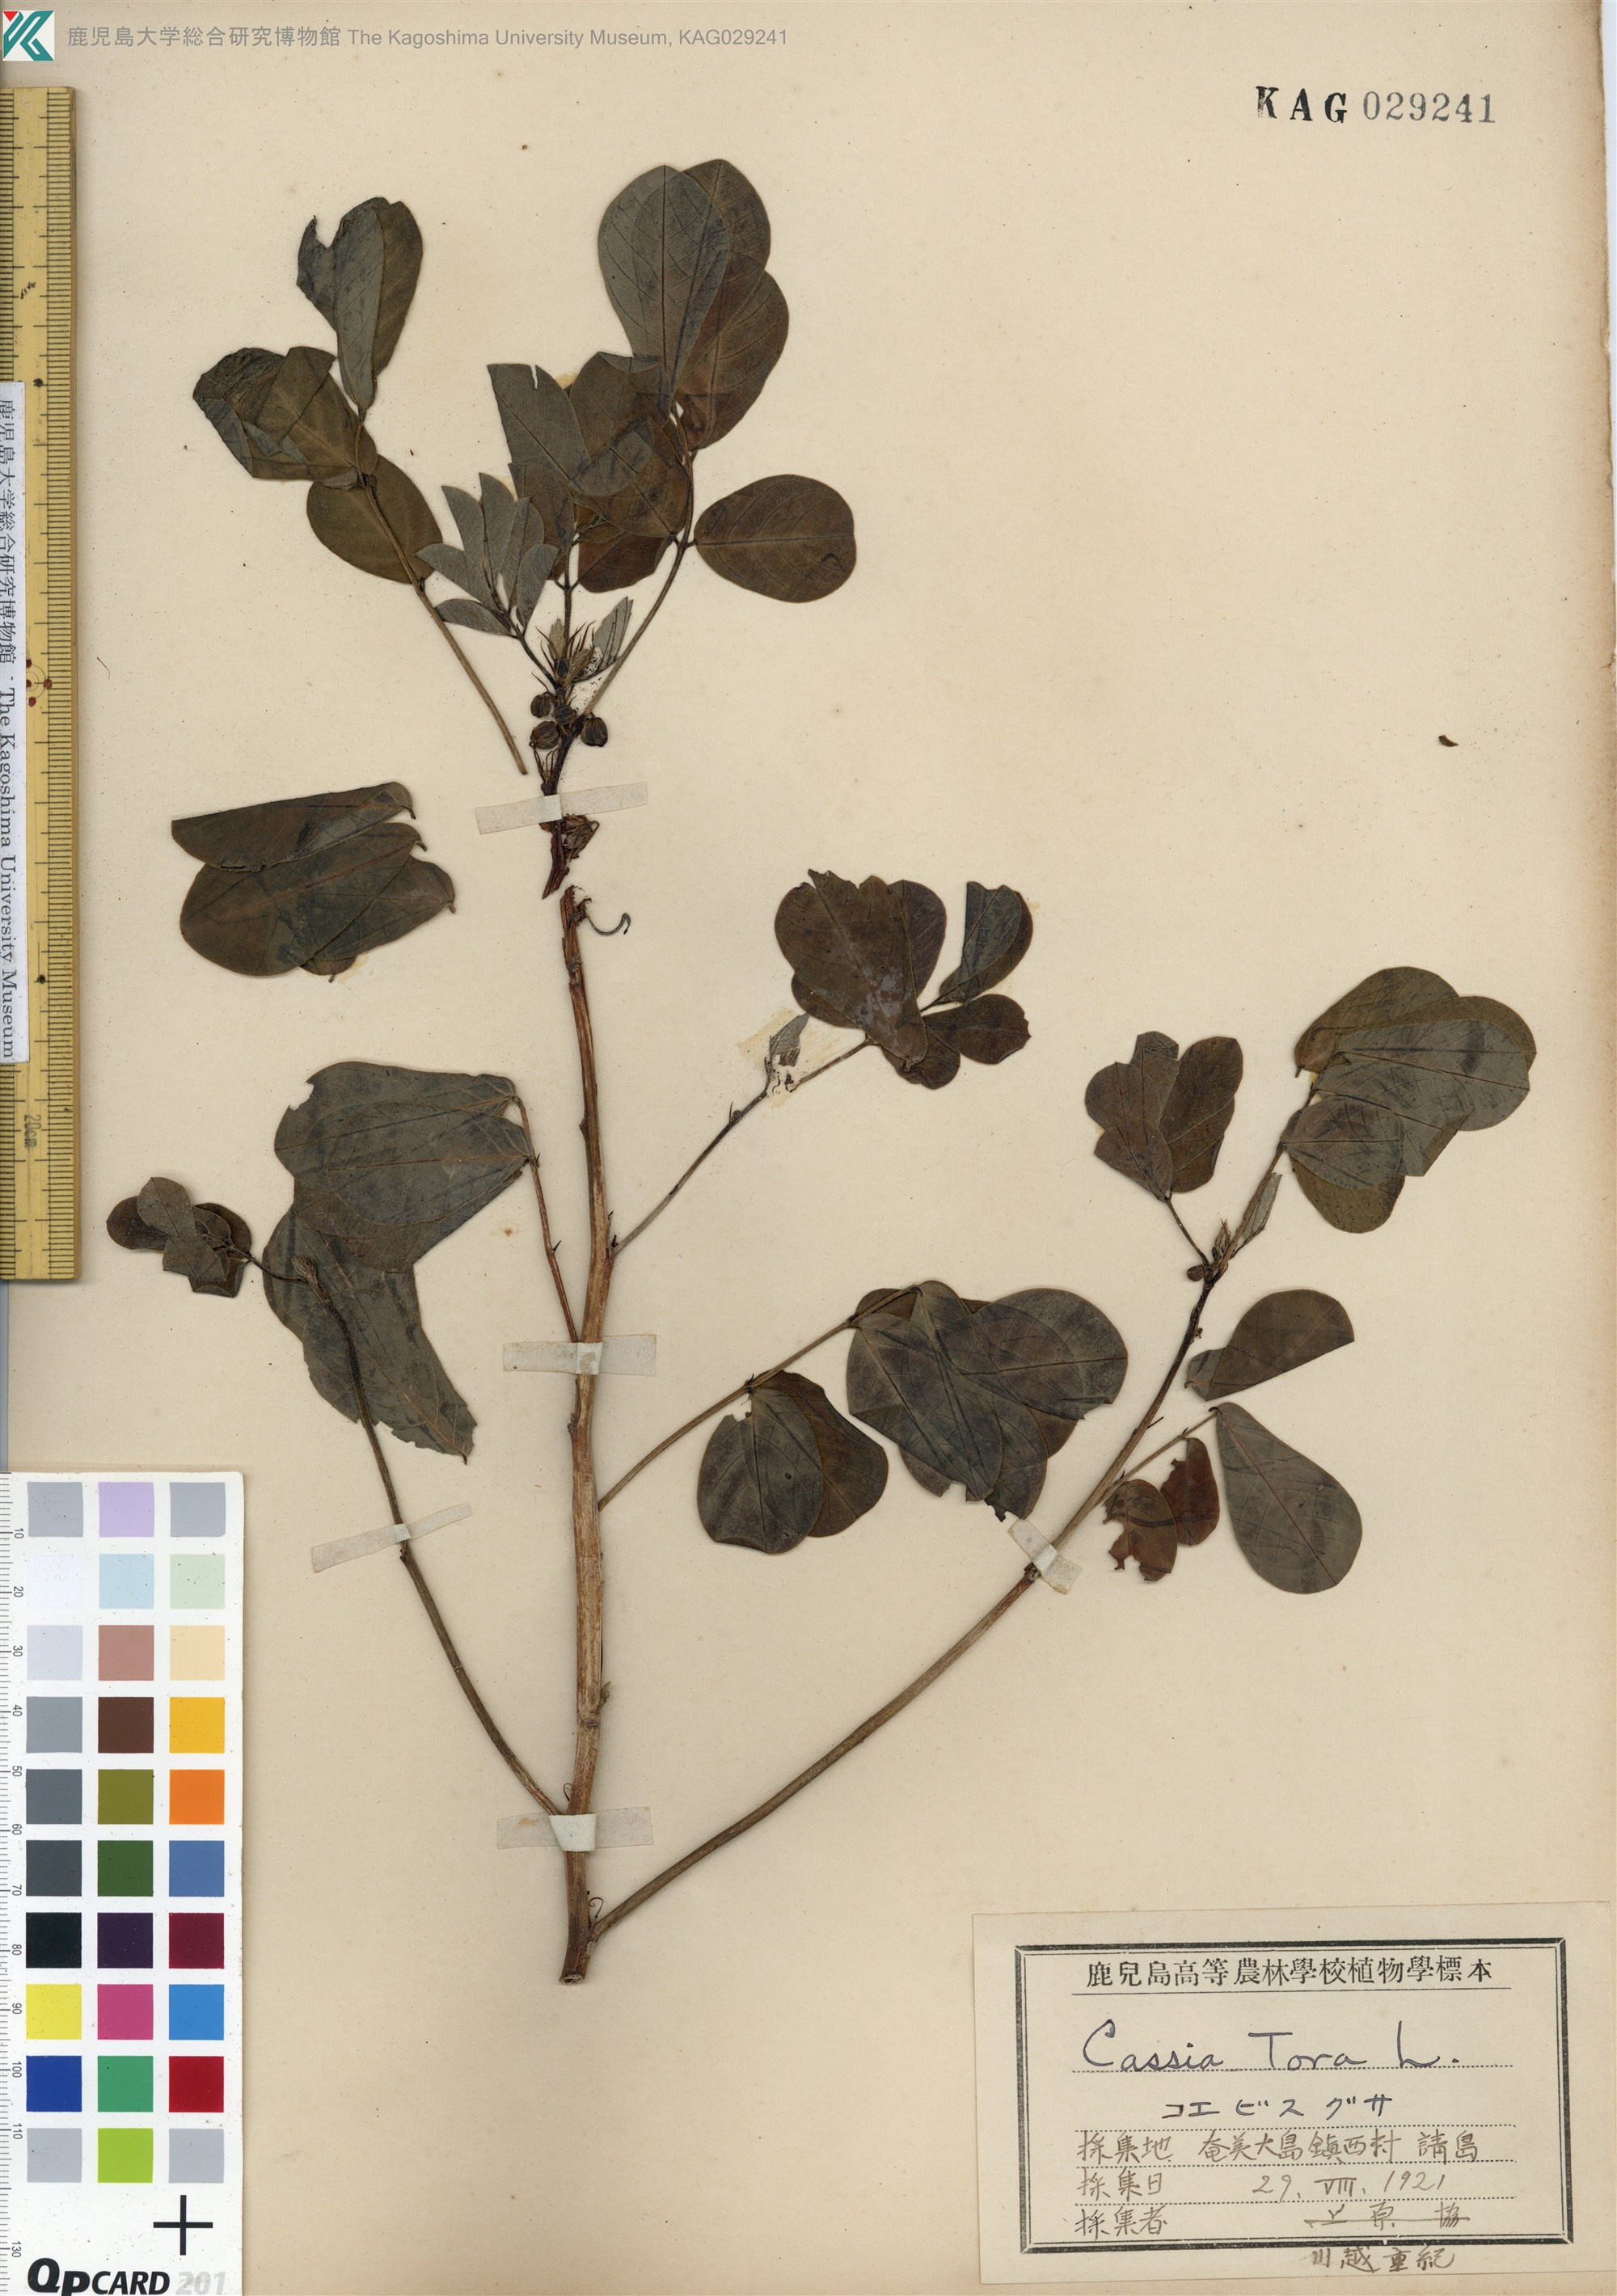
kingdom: Plantae
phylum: Tracheophyta
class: Magnoliopsida
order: Fabales
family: Fabaceae
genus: Senna
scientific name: Senna tora
